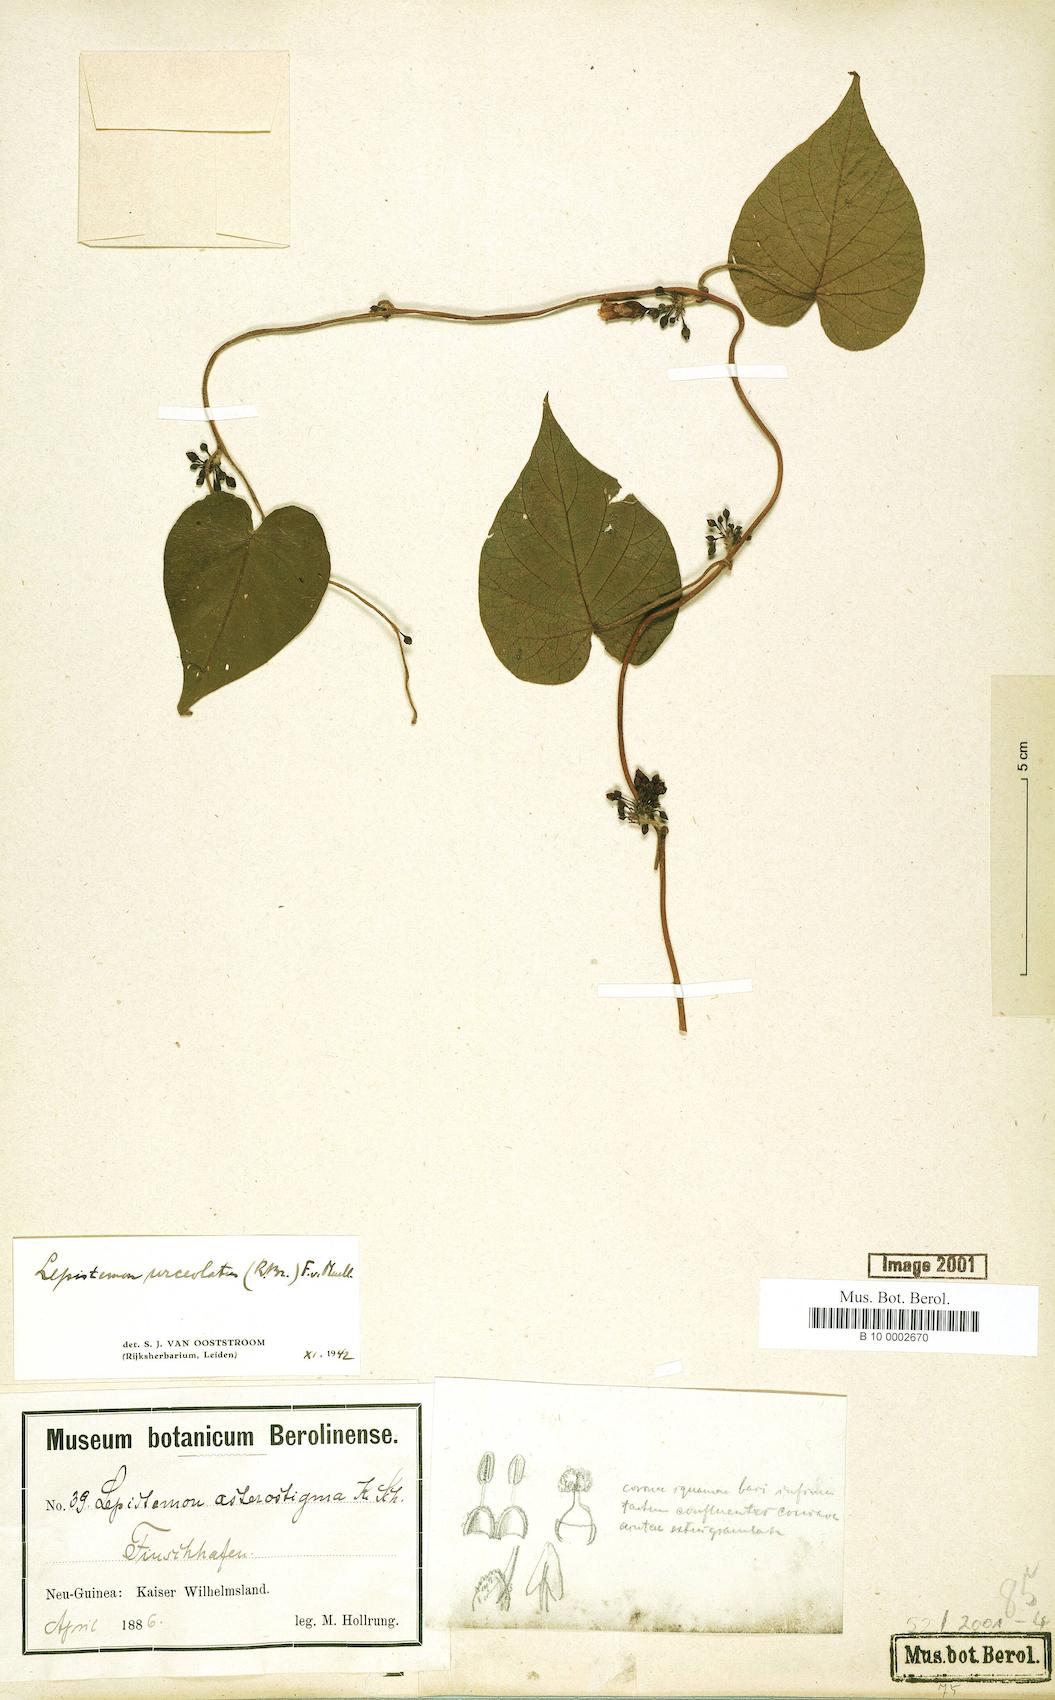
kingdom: Plantae
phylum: Tracheophyta
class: Magnoliopsida
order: Solanales
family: Convolvulaceae
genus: Lepistemon
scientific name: Lepistemon urceolatus
